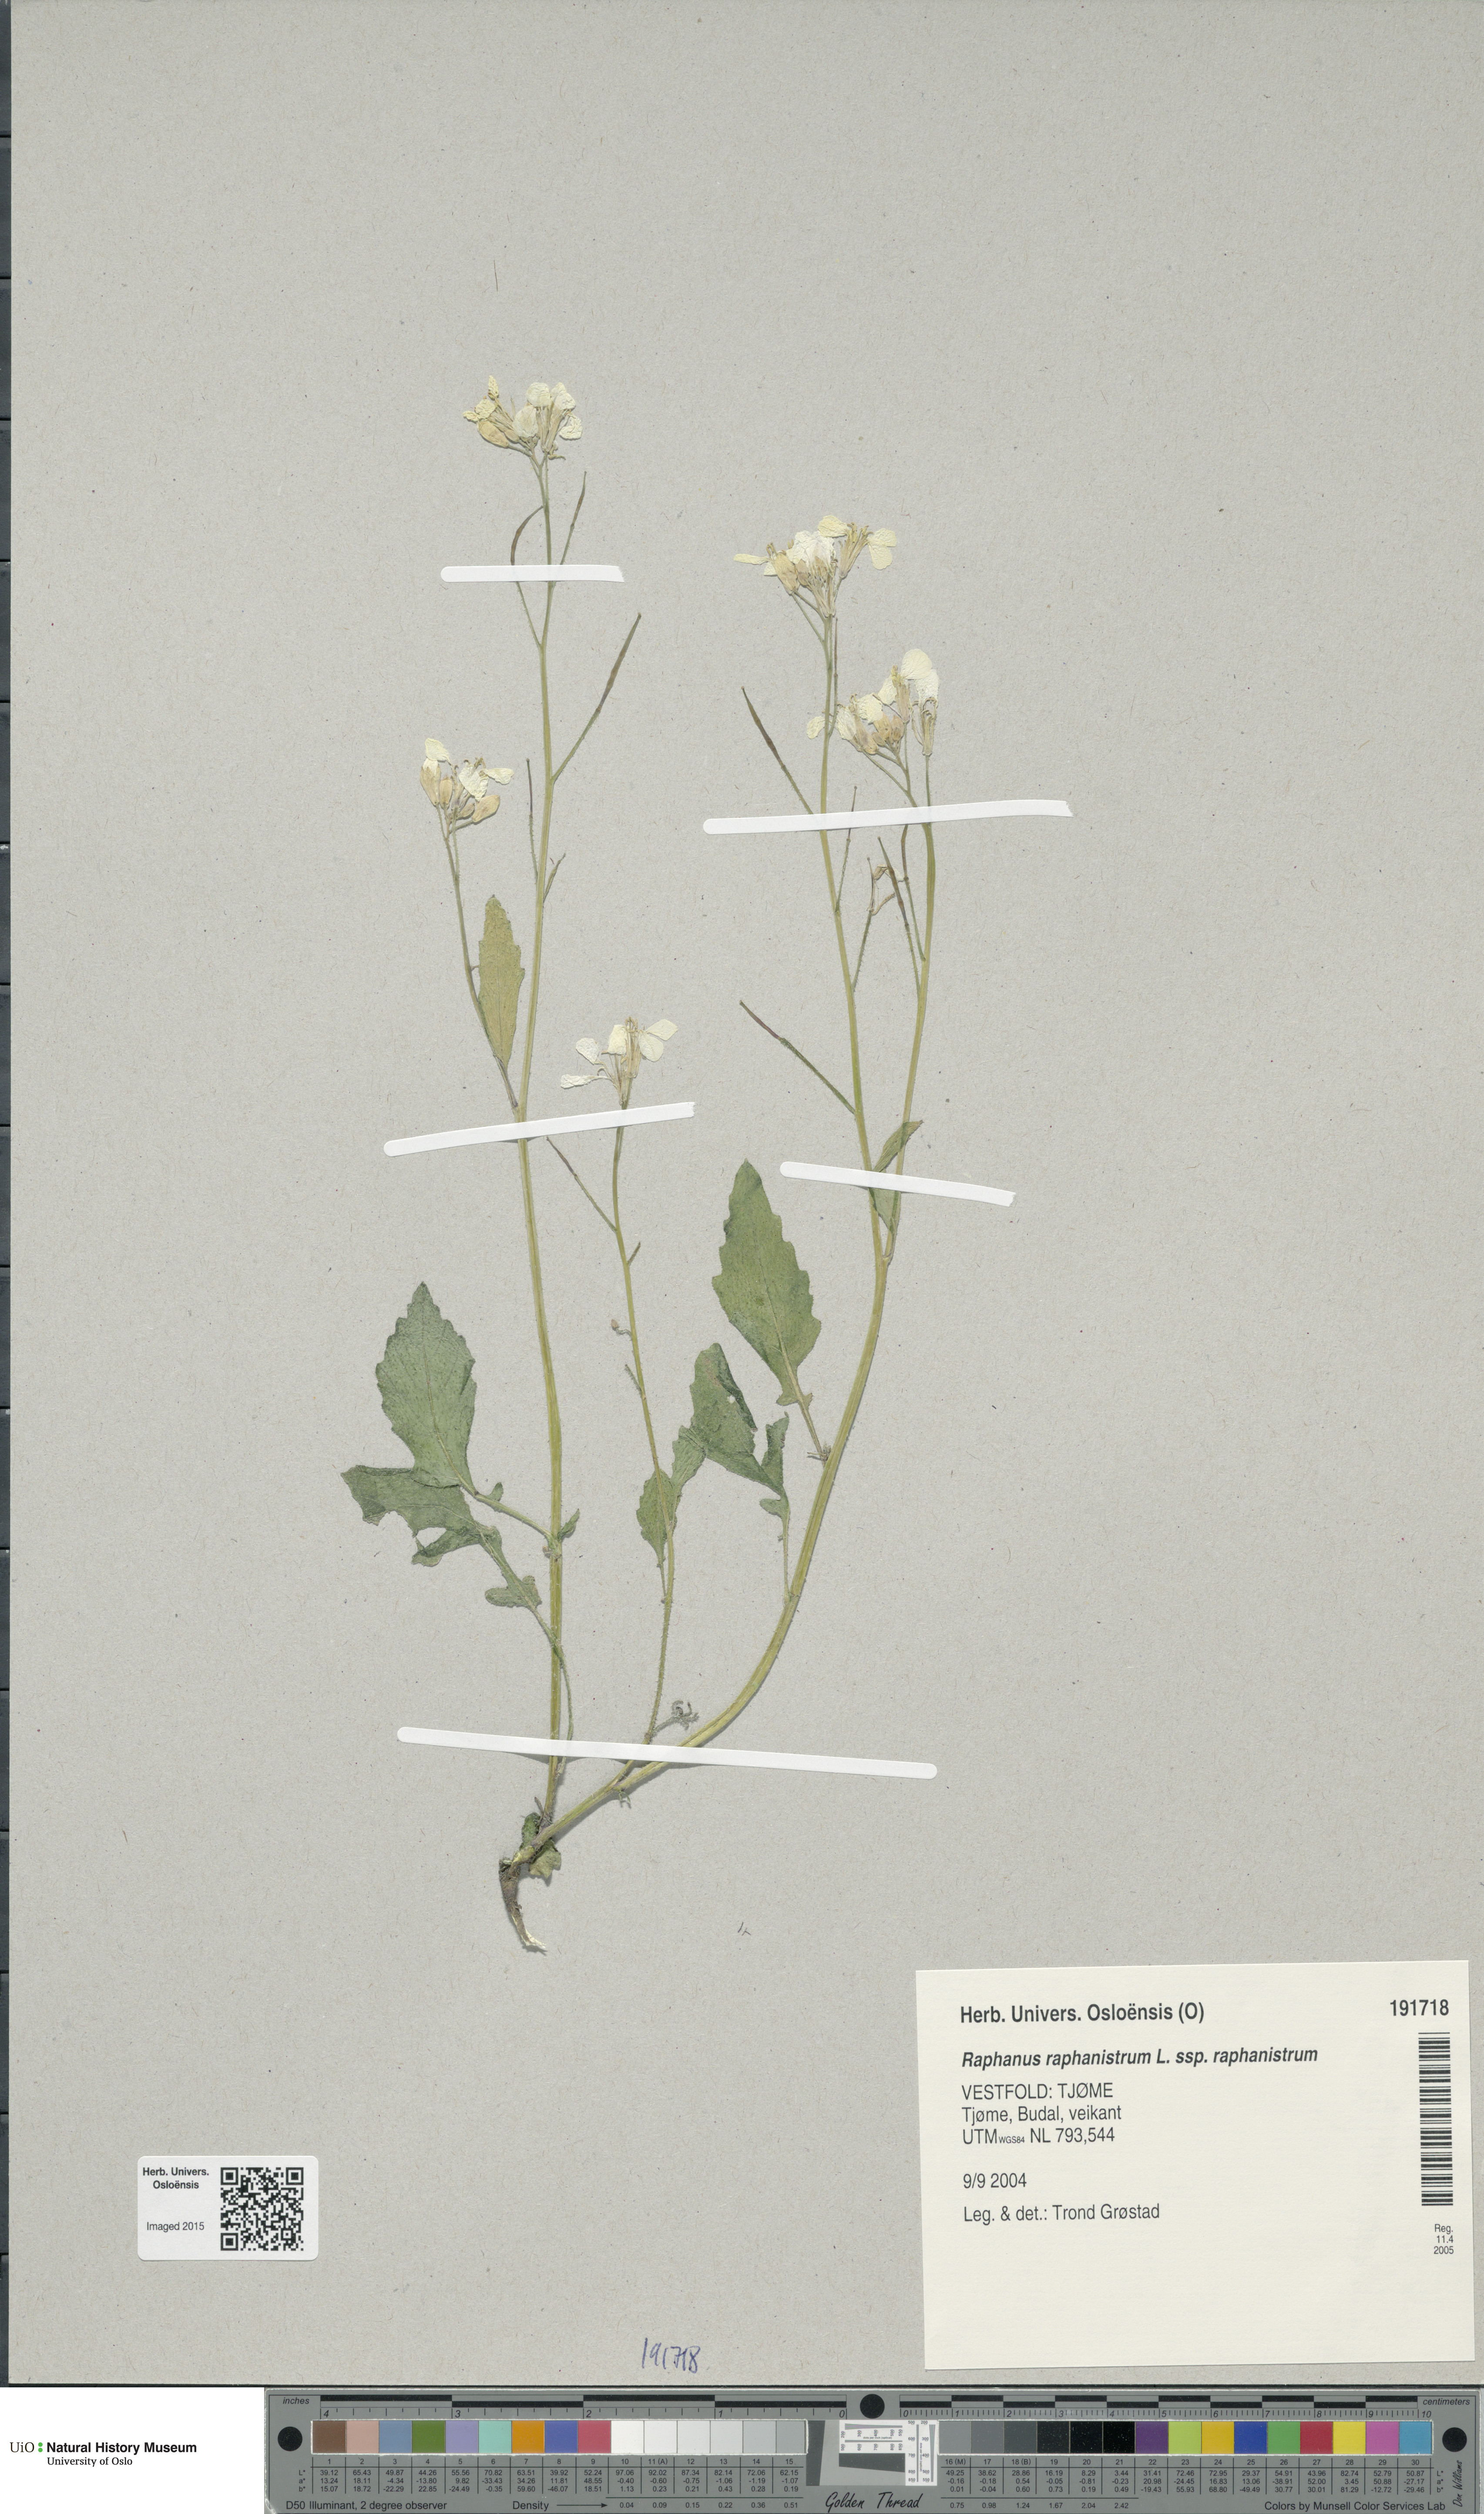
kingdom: Plantae
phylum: Tracheophyta
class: Magnoliopsida
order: Brassicales
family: Brassicaceae
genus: Raphanus
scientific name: Raphanus raphanistrum
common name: Wild radish
